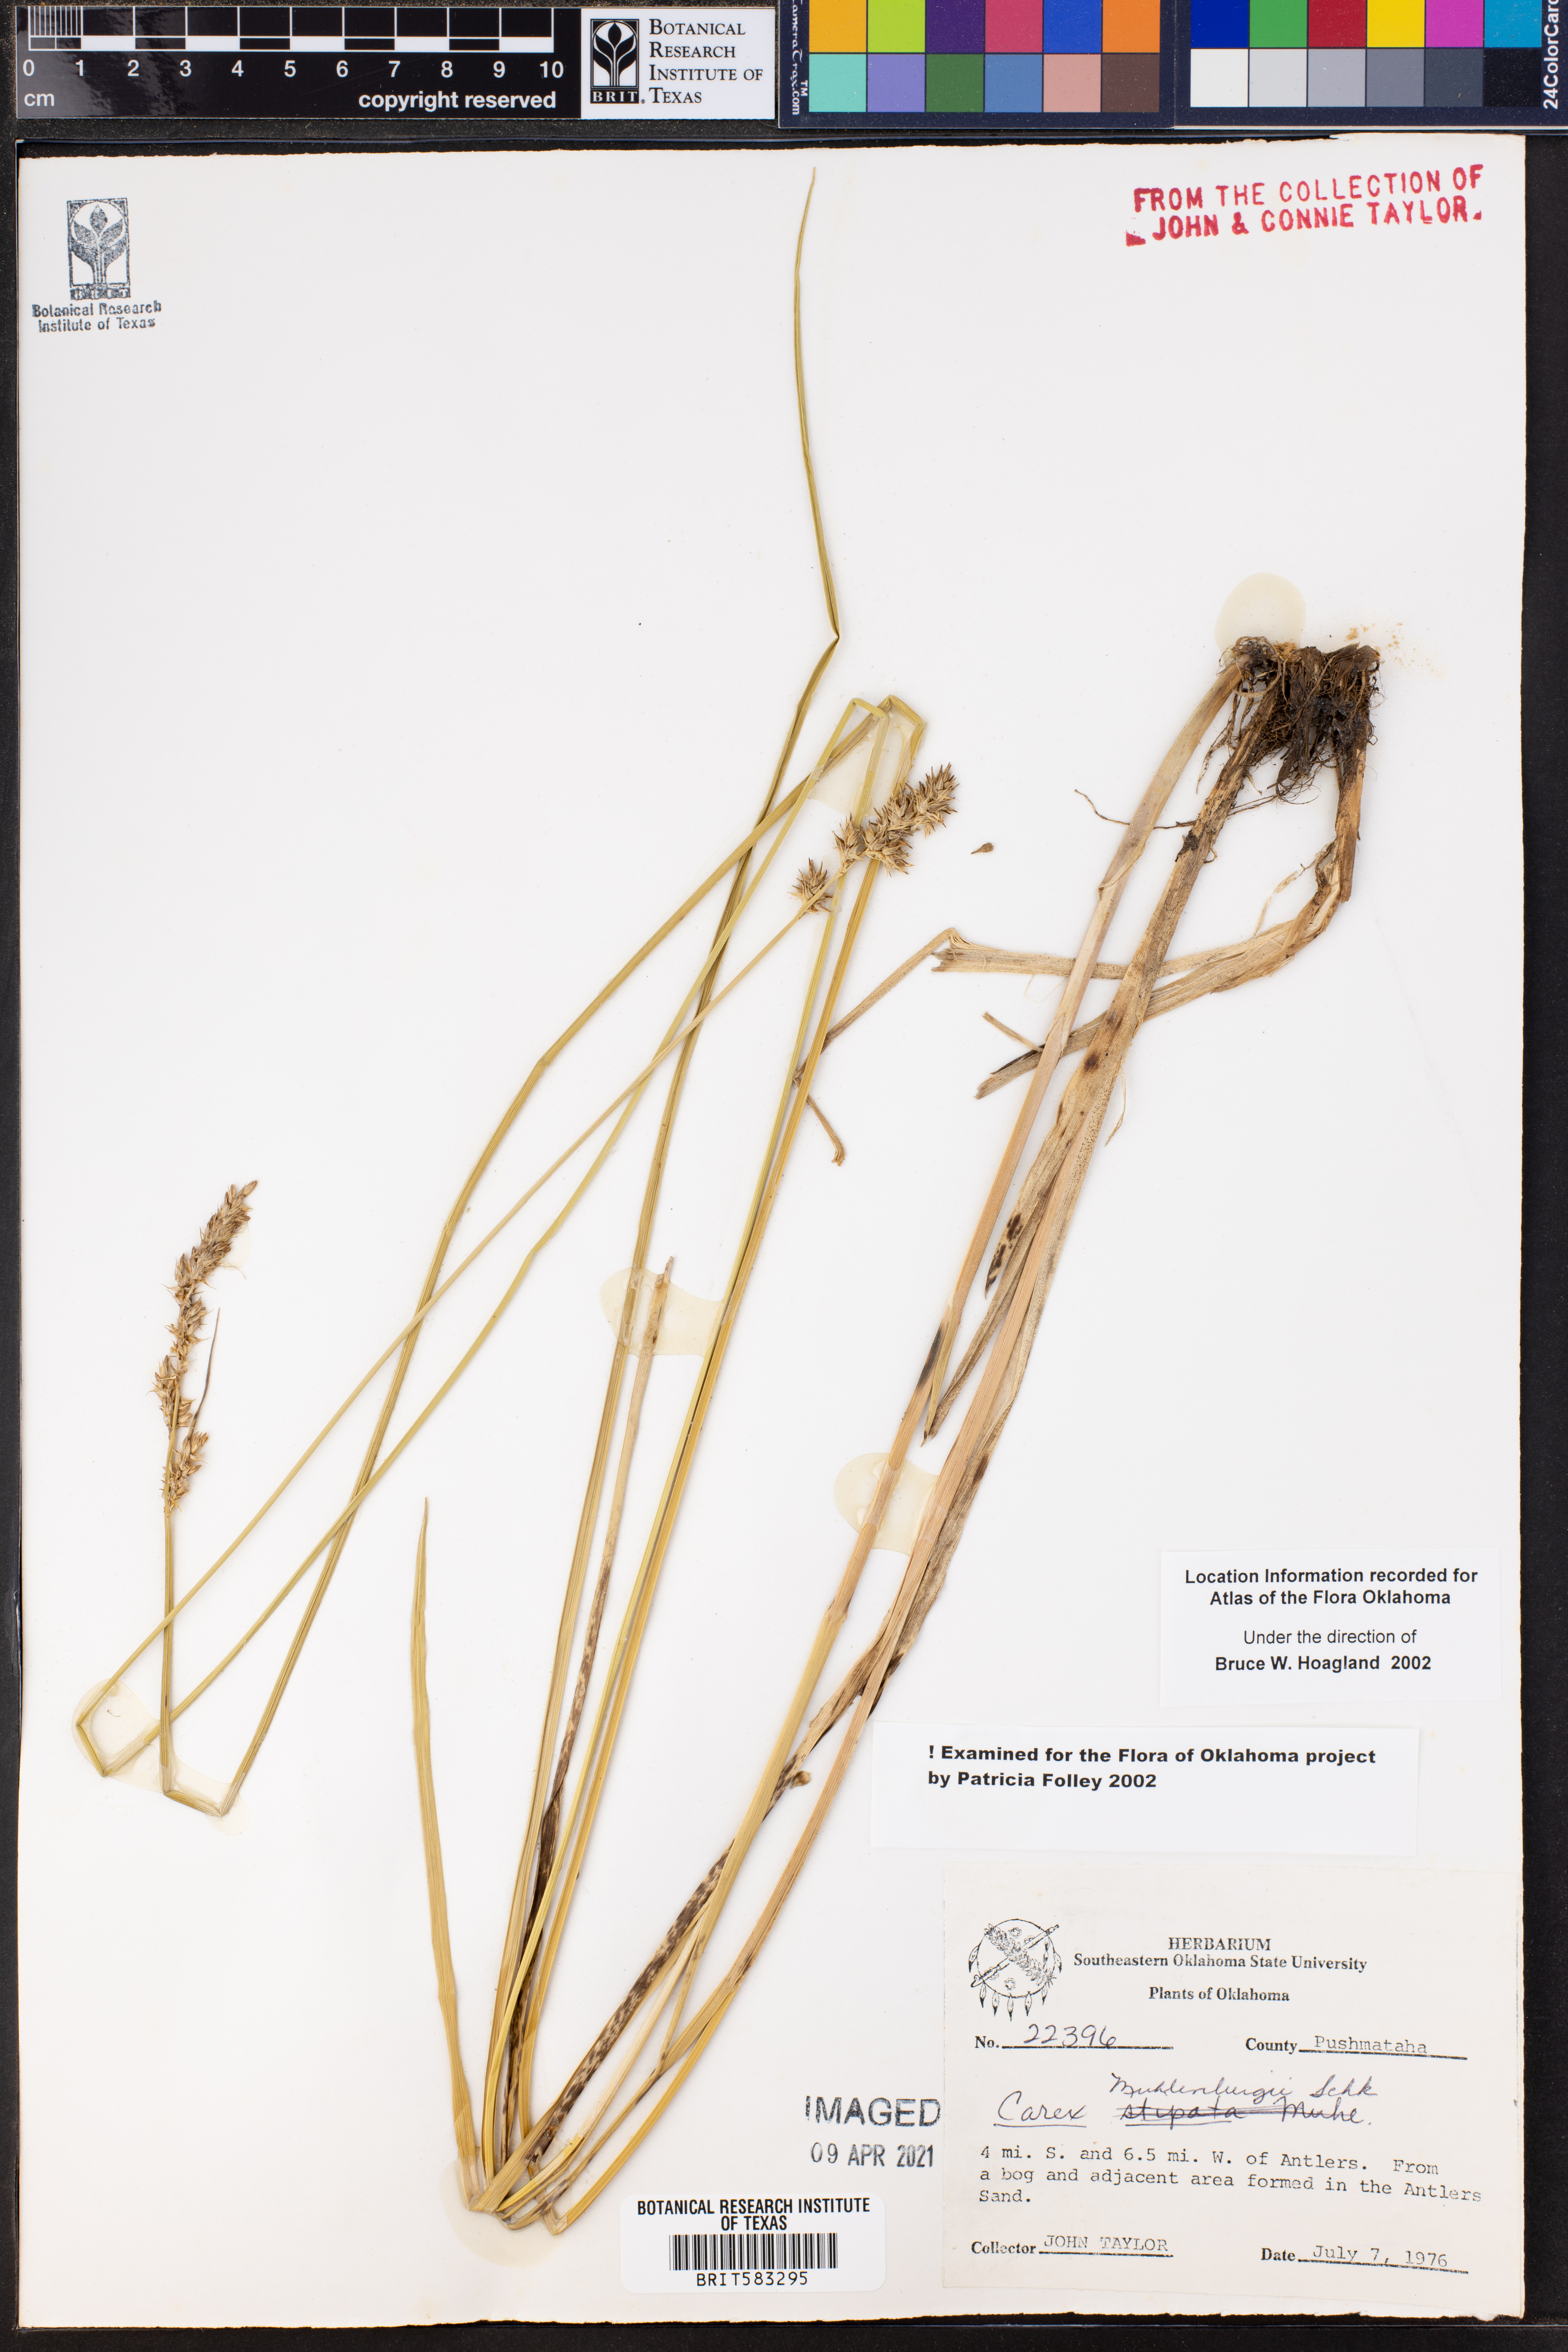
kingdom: Plantae
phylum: Tracheophyta
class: Liliopsida
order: Poales
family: Cyperaceae
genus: Carex
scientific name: Carex vulpinoidea
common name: American fox-sedge
